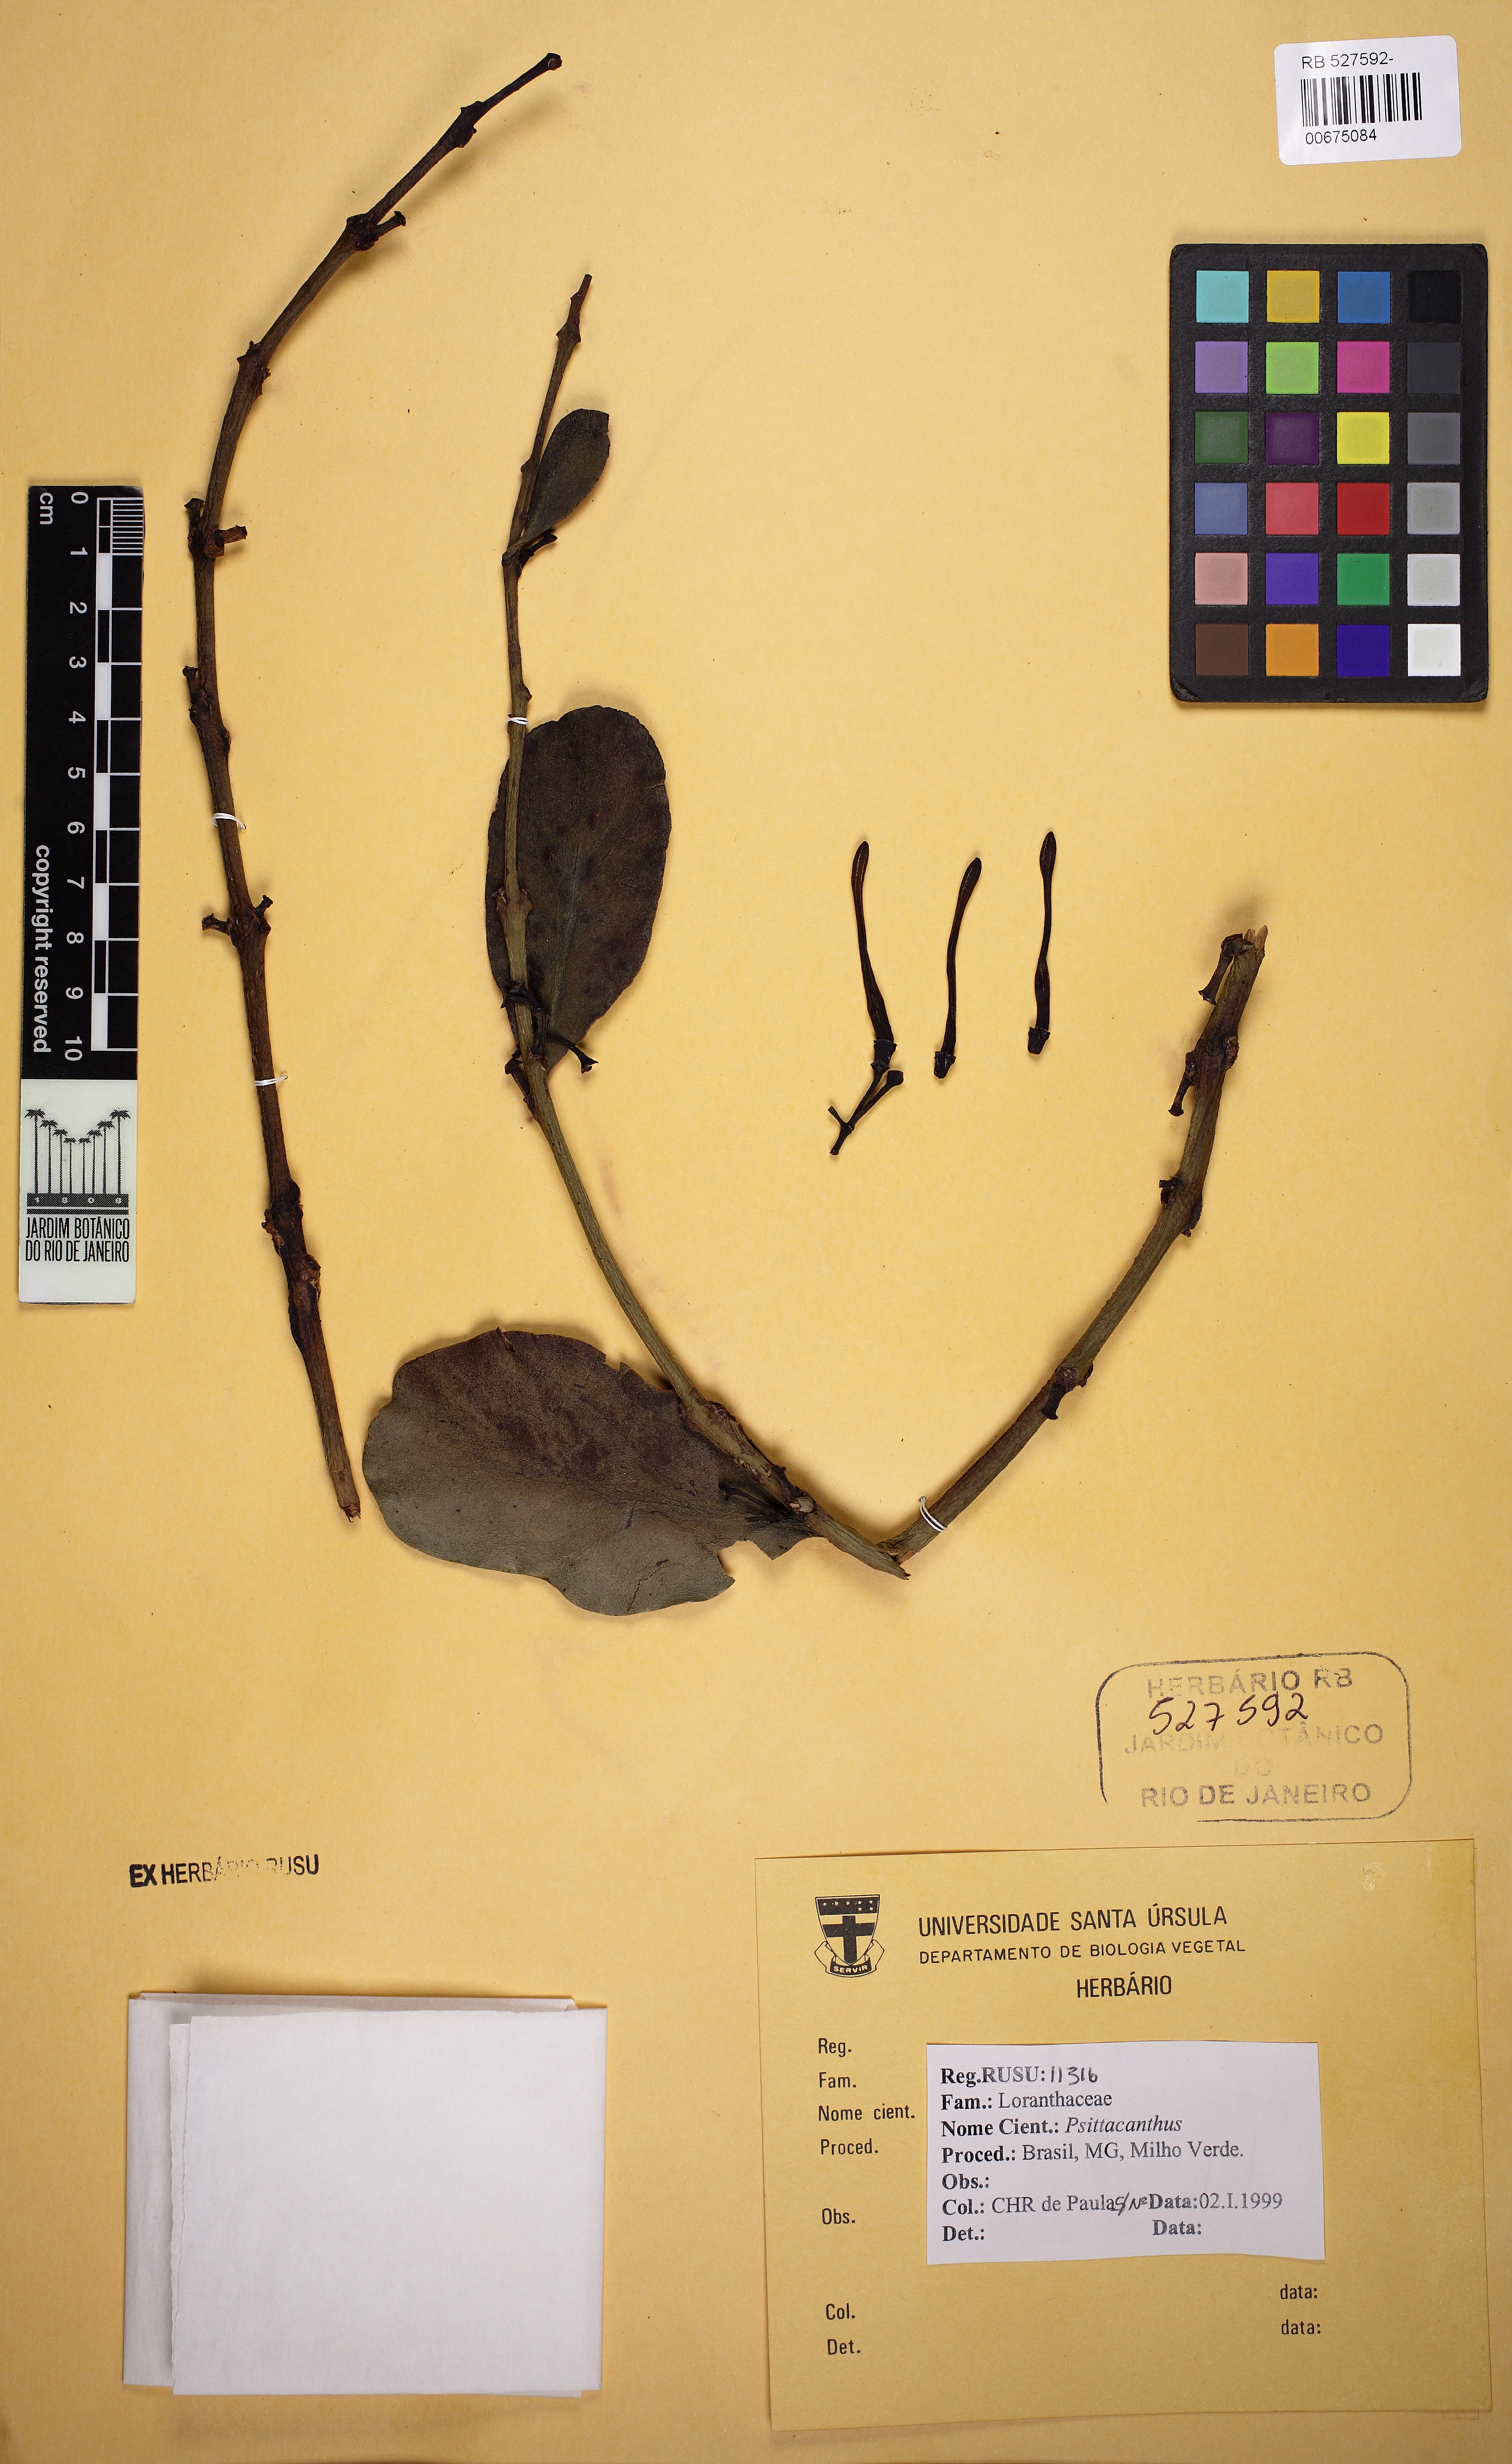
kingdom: Plantae
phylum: Tracheophyta
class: Magnoliopsida
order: Santalales
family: Loranthaceae
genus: Psittacanthus
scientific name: Psittacanthus
